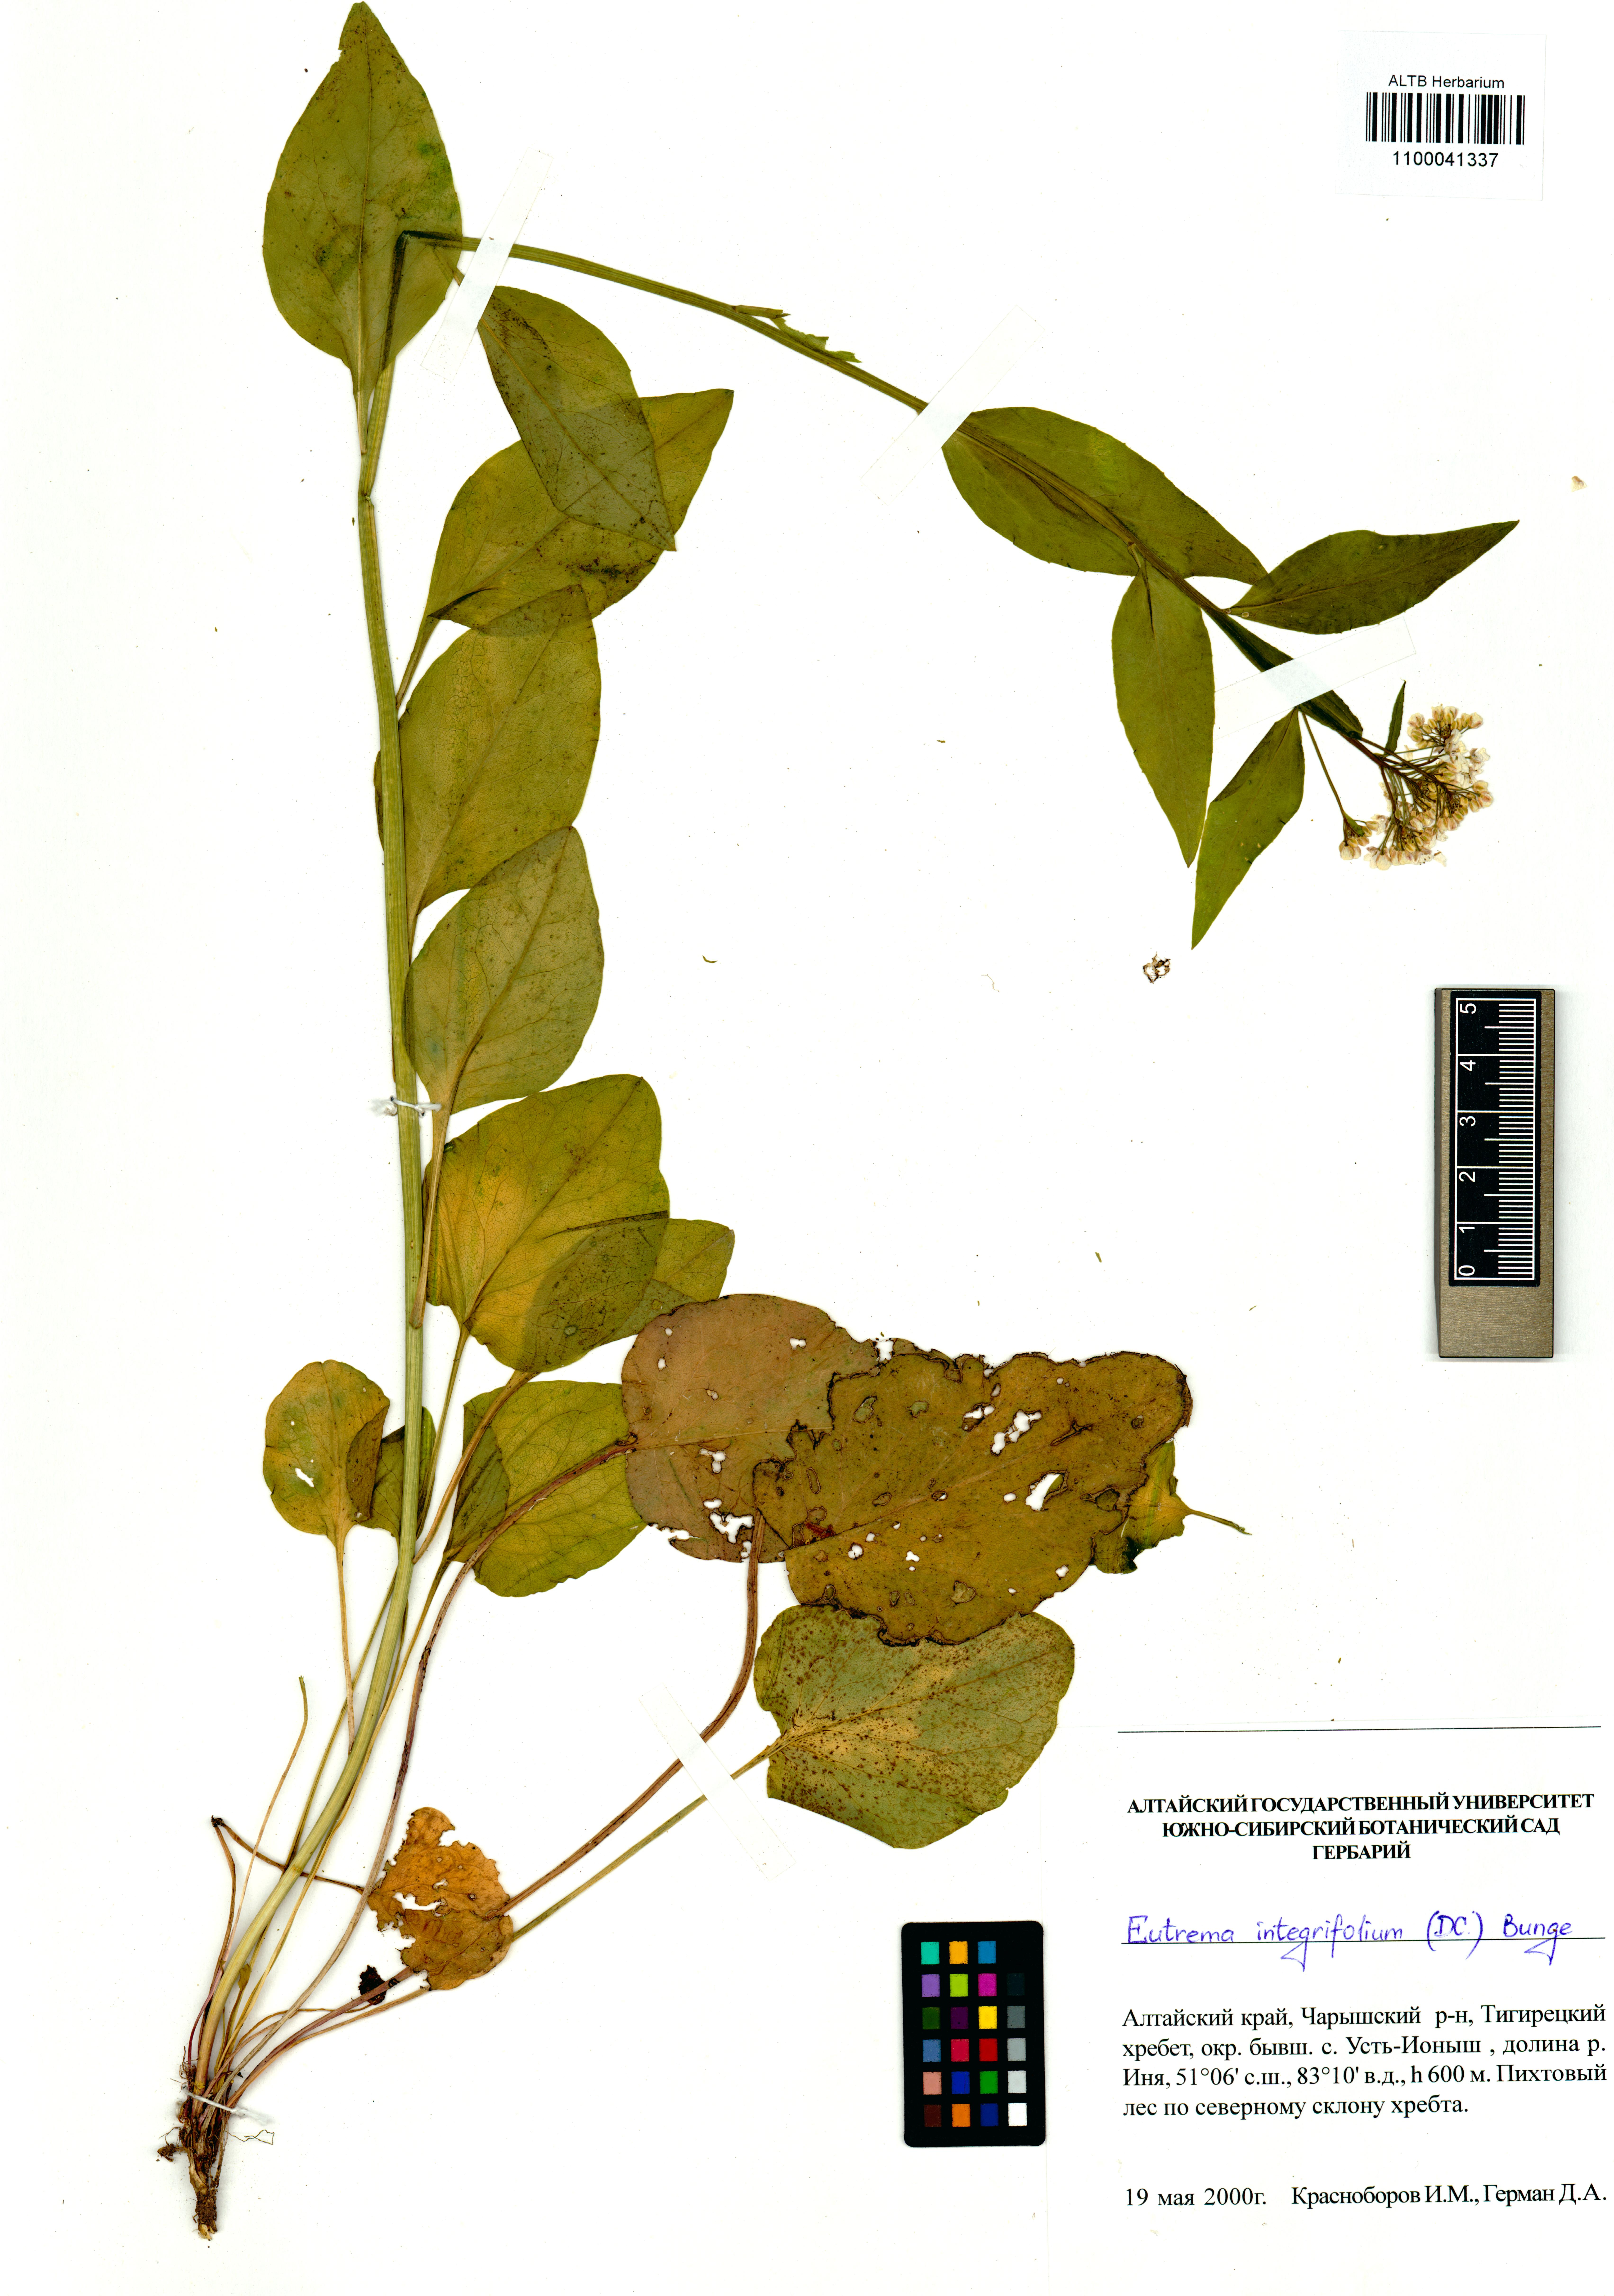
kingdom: Plantae
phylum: Tracheophyta
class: Magnoliopsida
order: Brassicales
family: Brassicaceae
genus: Eutrema
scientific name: Eutrema integrifolium
